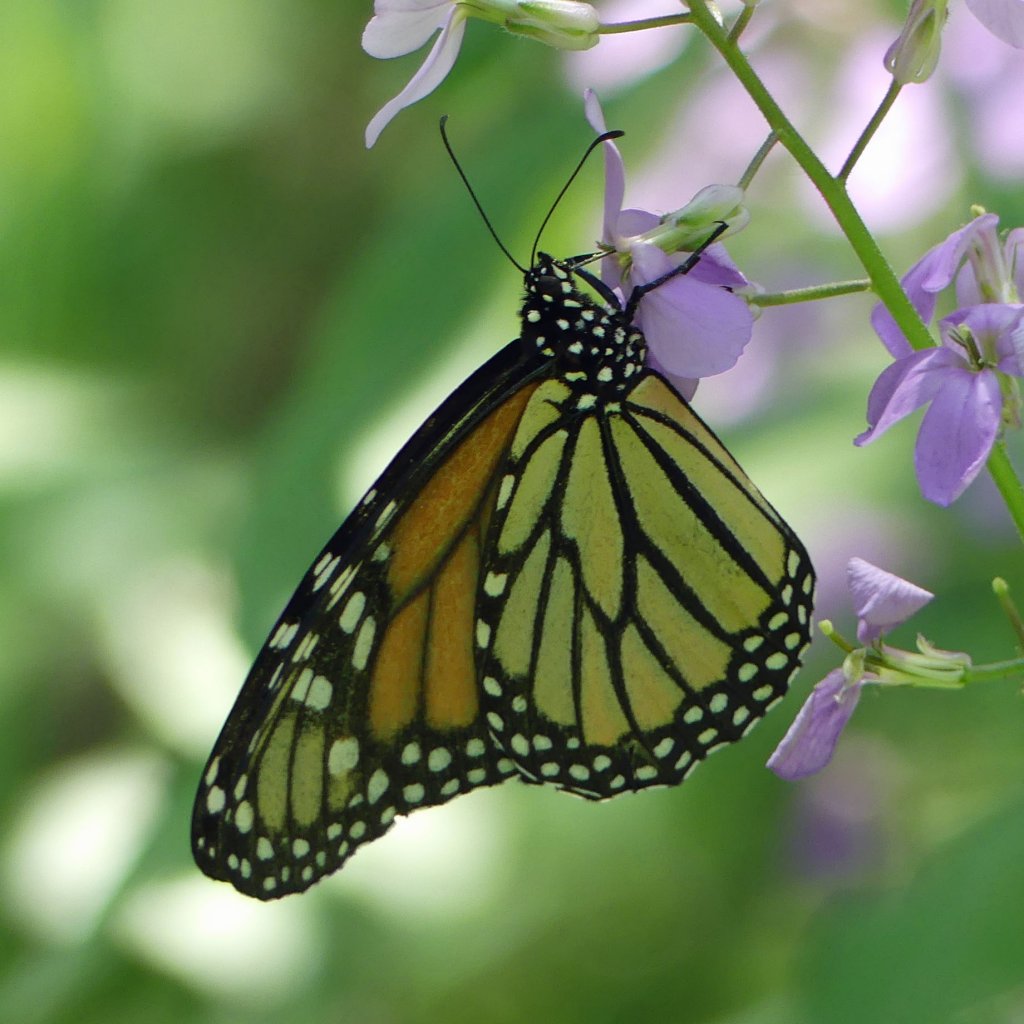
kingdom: Animalia
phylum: Arthropoda
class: Insecta
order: Lepidoptera
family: Nymphalidae
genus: Danaus
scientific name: Danaus plexippus
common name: Monarch
